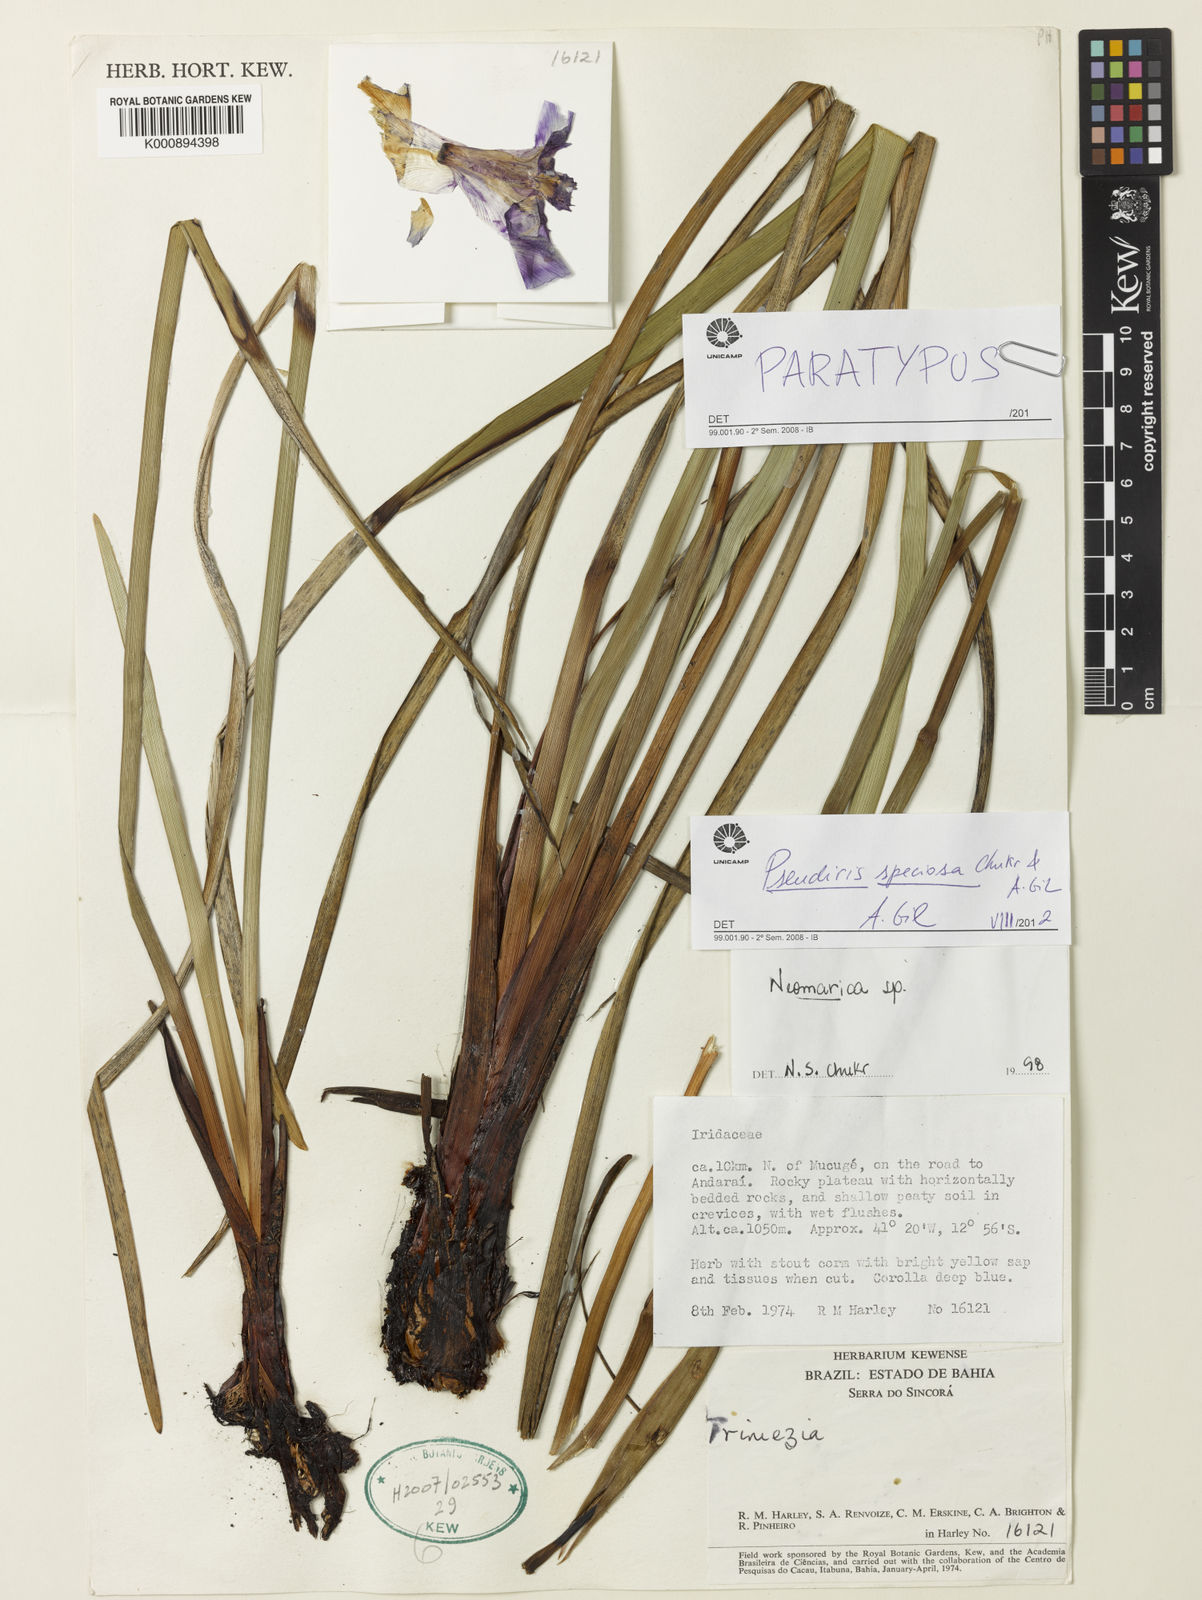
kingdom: Plantae
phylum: Tracheophyta
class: Liliopsida
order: Asparagales
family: Iridaceae
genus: Trimezia
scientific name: Trimezia speciosa
